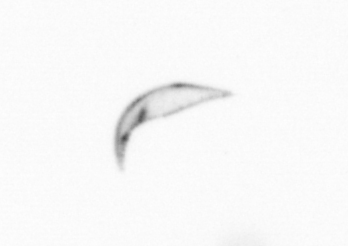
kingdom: Chromista
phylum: Ochrophyta
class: Bacillariophyceae
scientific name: Bacillariophyceae
